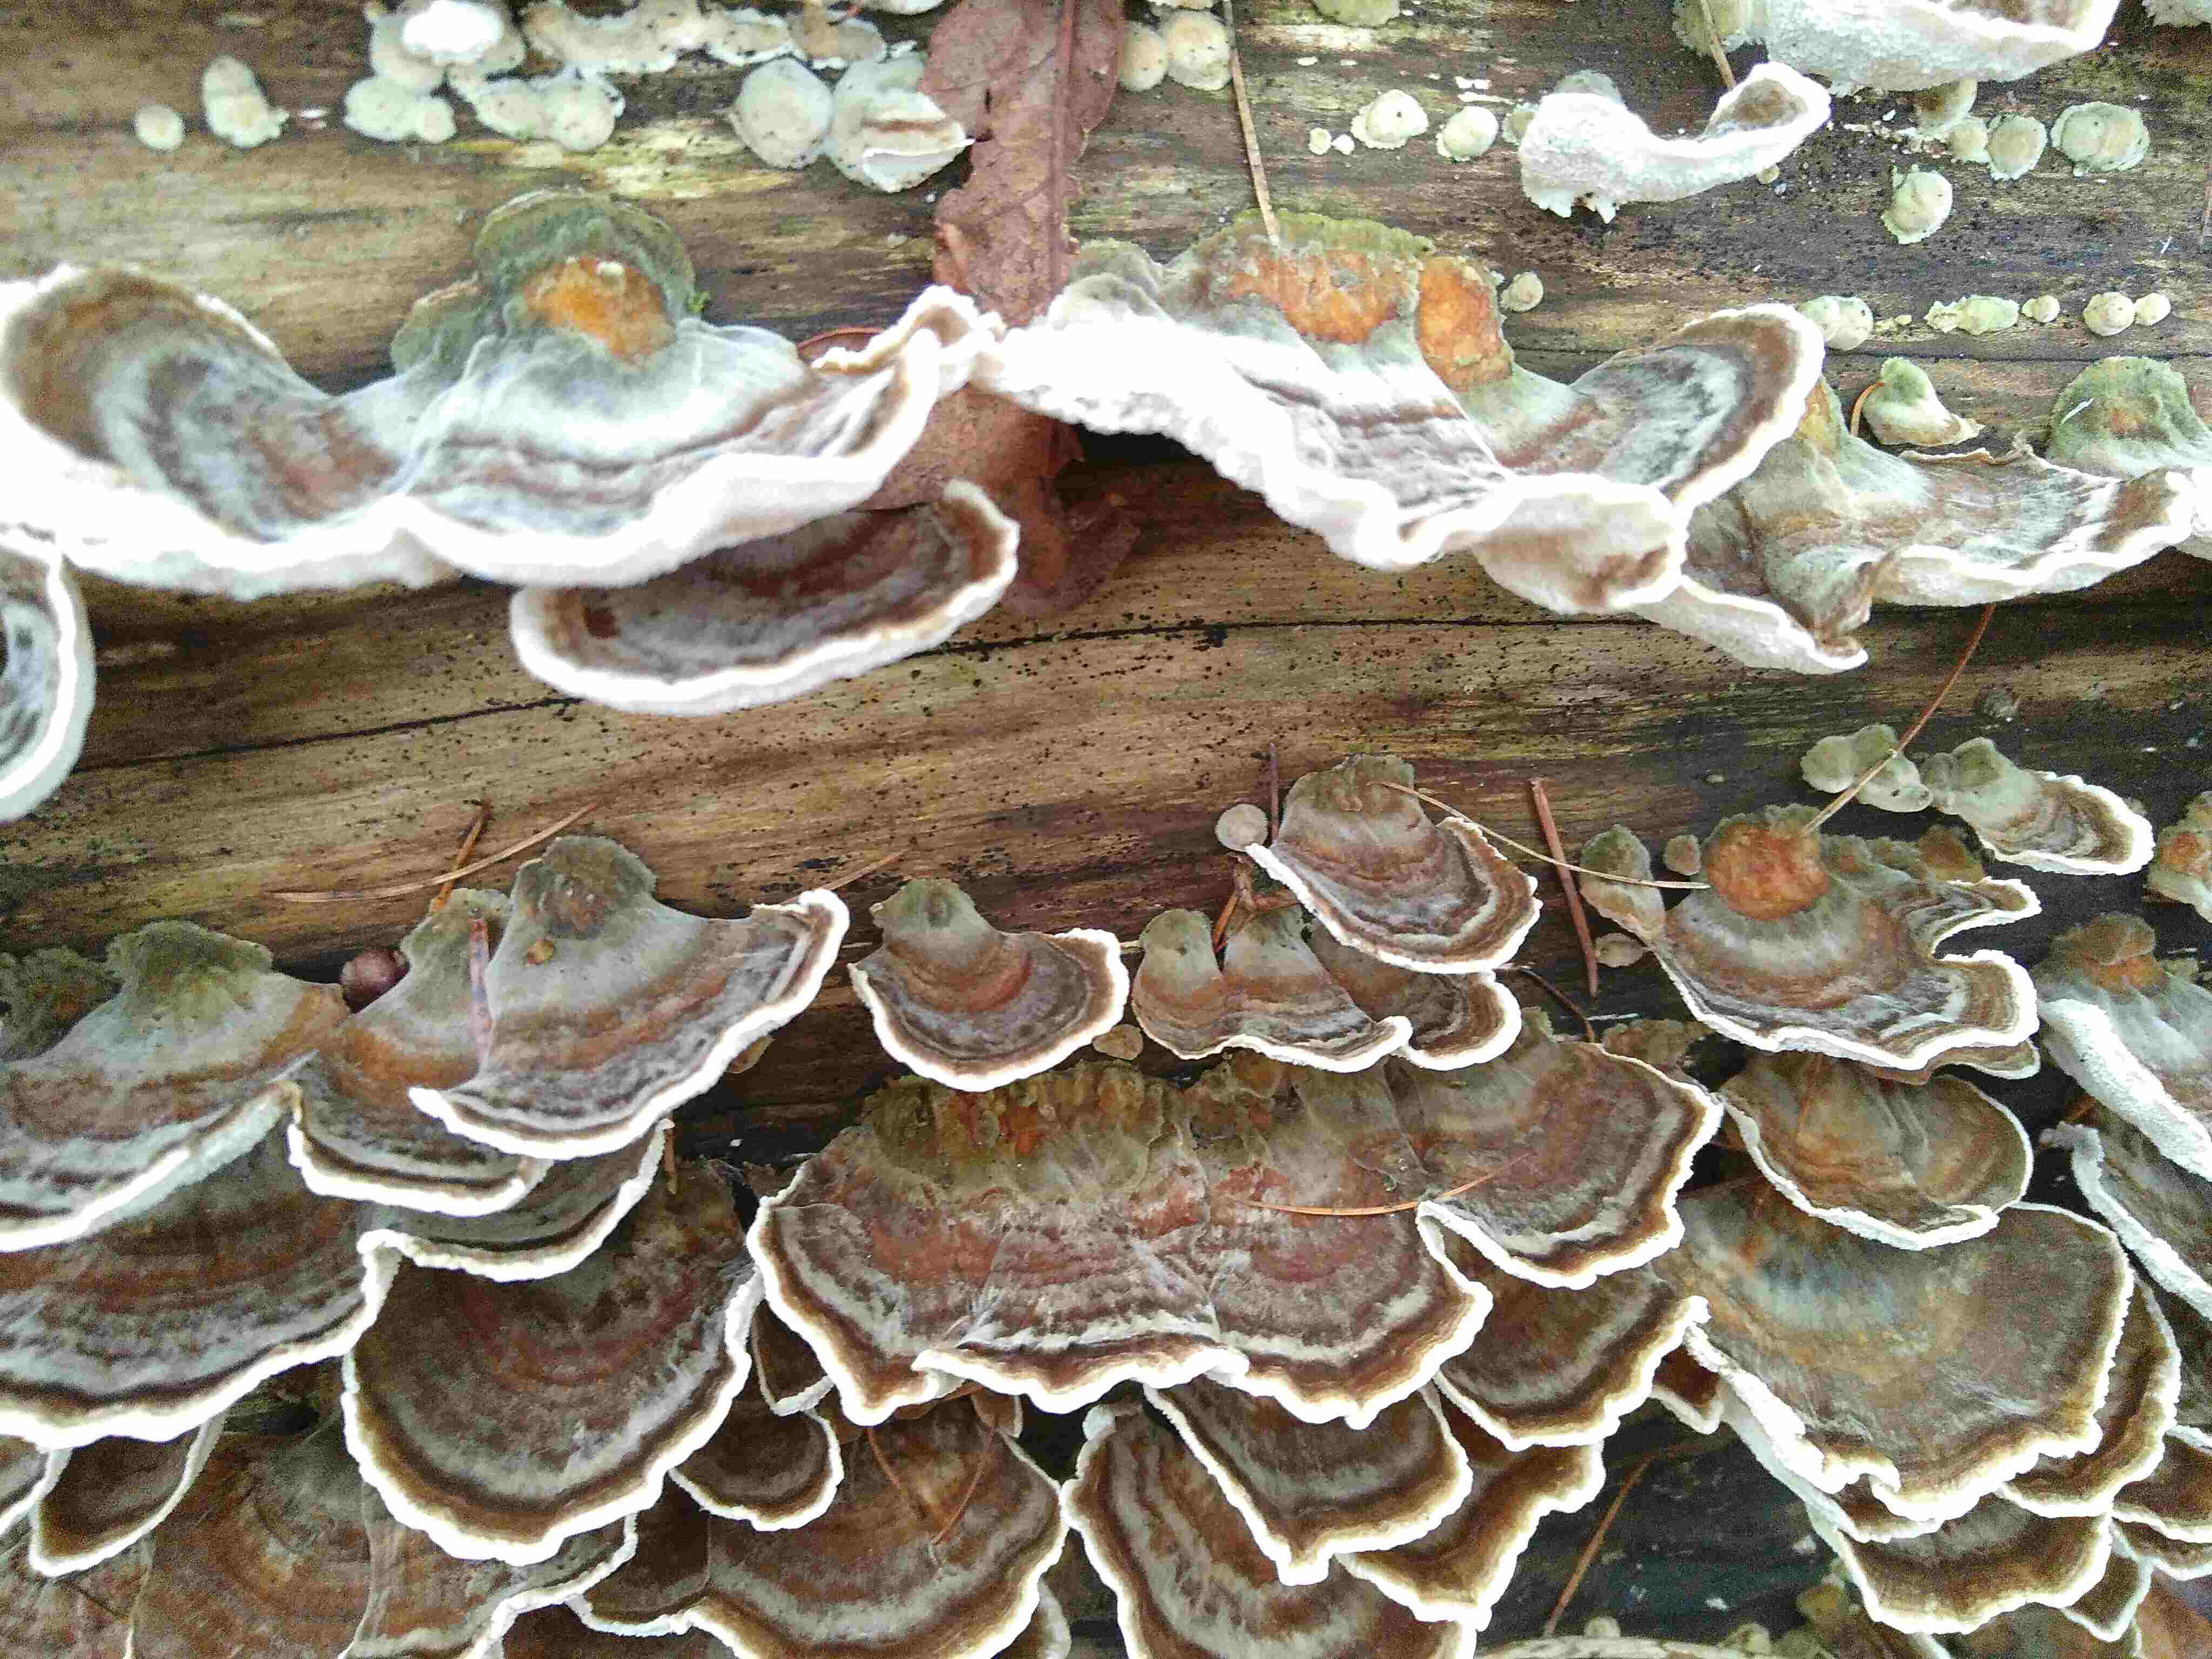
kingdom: Fungi
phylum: Basidiomycota
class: Agaricomycetes
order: Polyporales
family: Polyporaceae
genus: Trametes
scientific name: Trametes versicolor
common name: broget læderporesvamp
